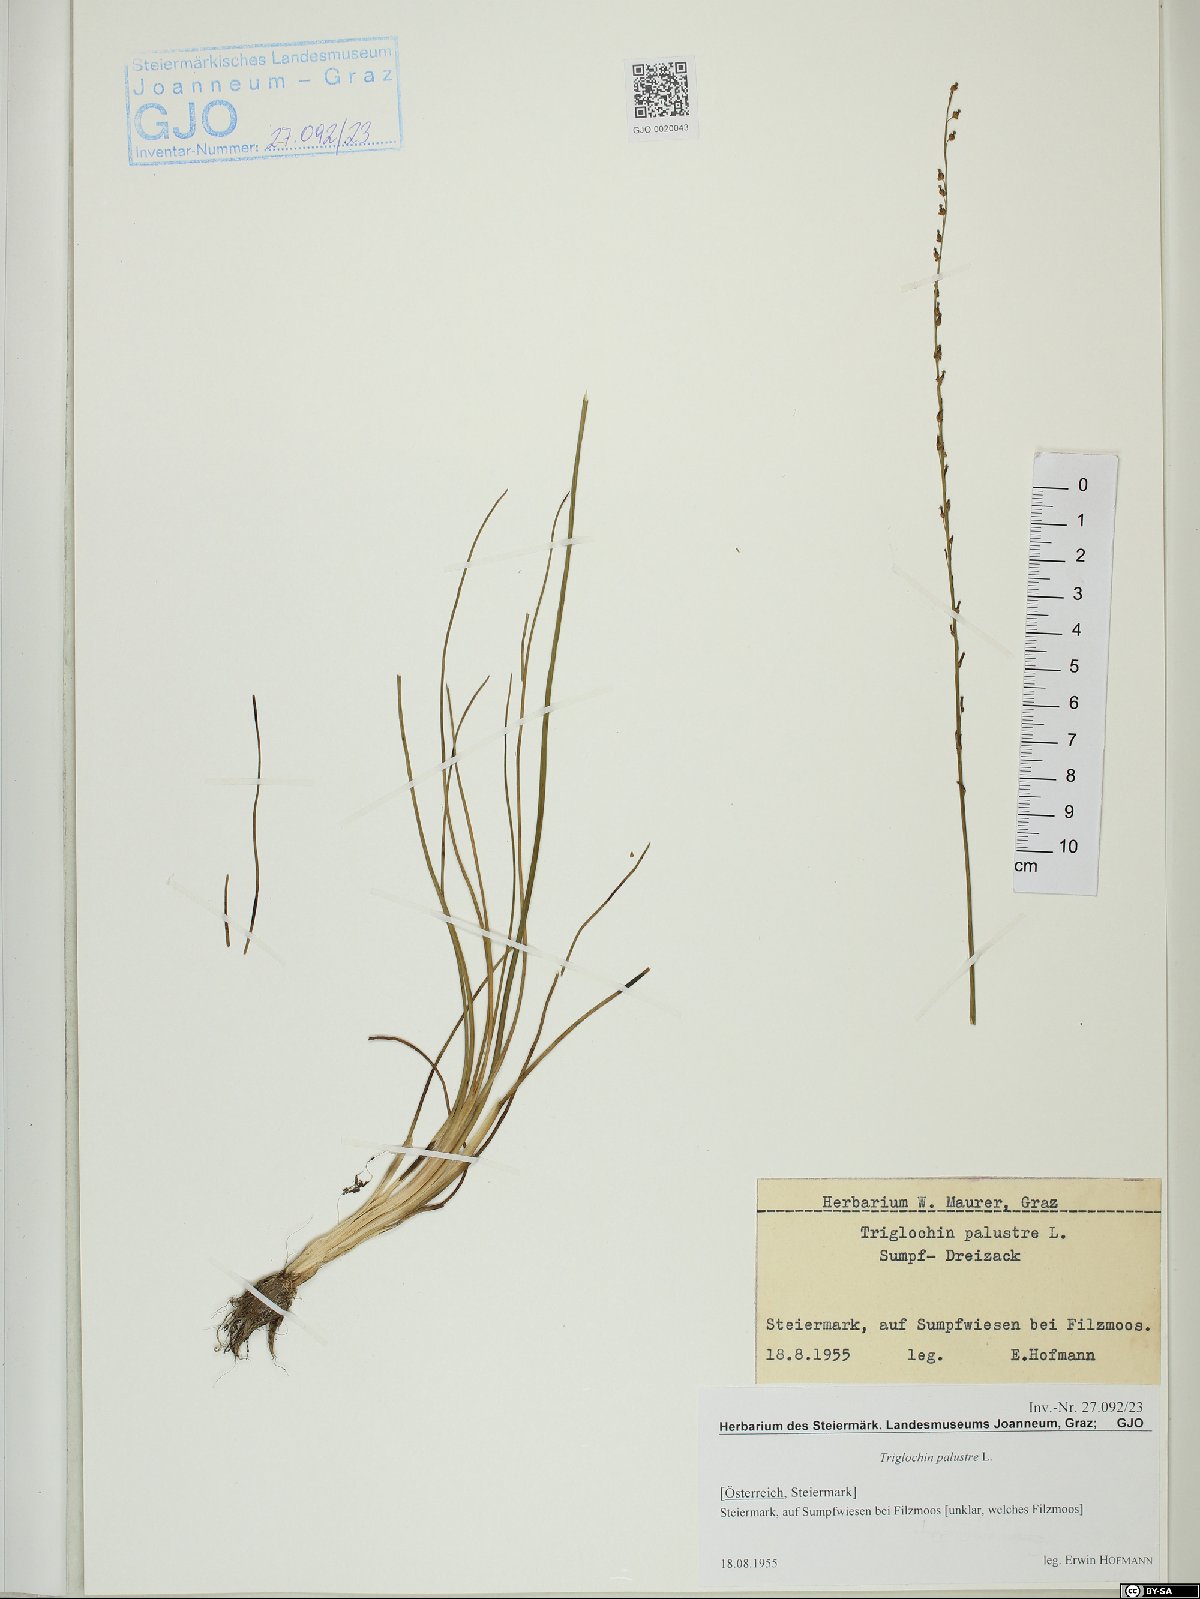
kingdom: Plantae
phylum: Tracheophyta
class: Liliopsida
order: Alismatales
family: Juncaginaceae
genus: Triglochin
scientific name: Triglochin palustris
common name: Marsh arrowgrass
